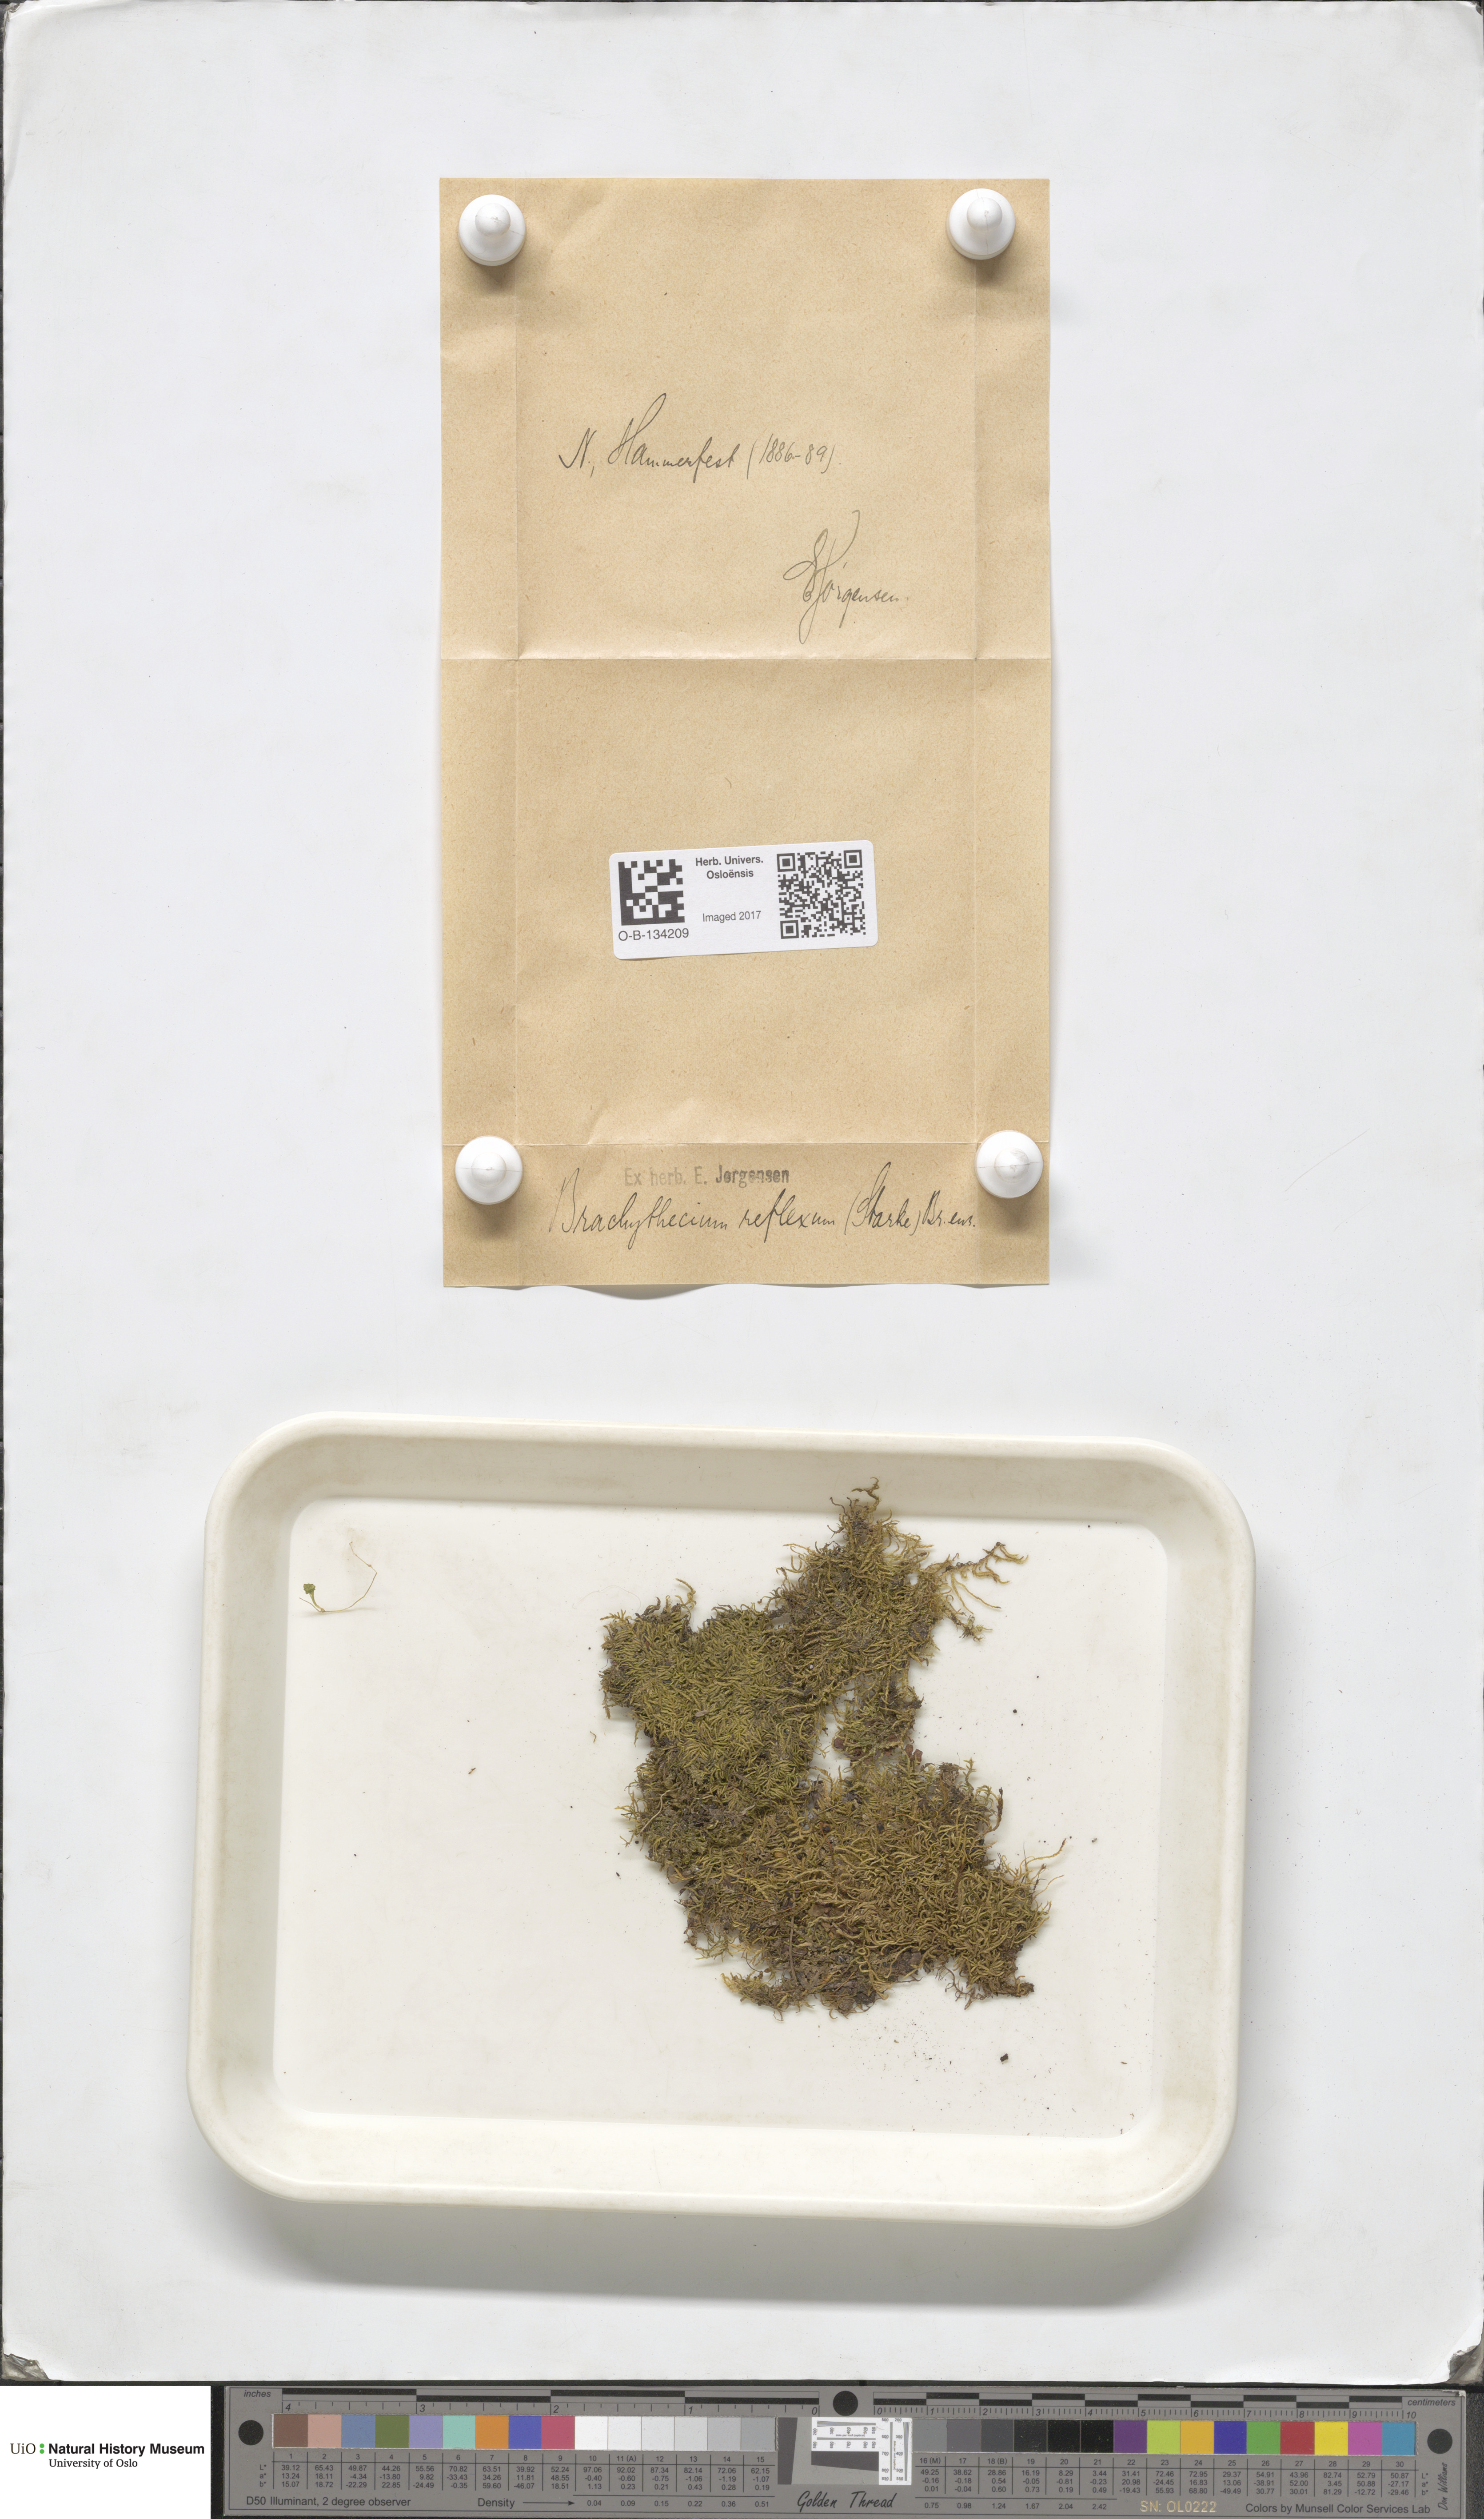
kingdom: Plantae
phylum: Bryophyta
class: Bryopsida
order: Hypnales
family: Brachytheciaceae
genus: Sciuro-hypnum
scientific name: Sciuro-hypnum reflexum
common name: Reflexed feather-moss
